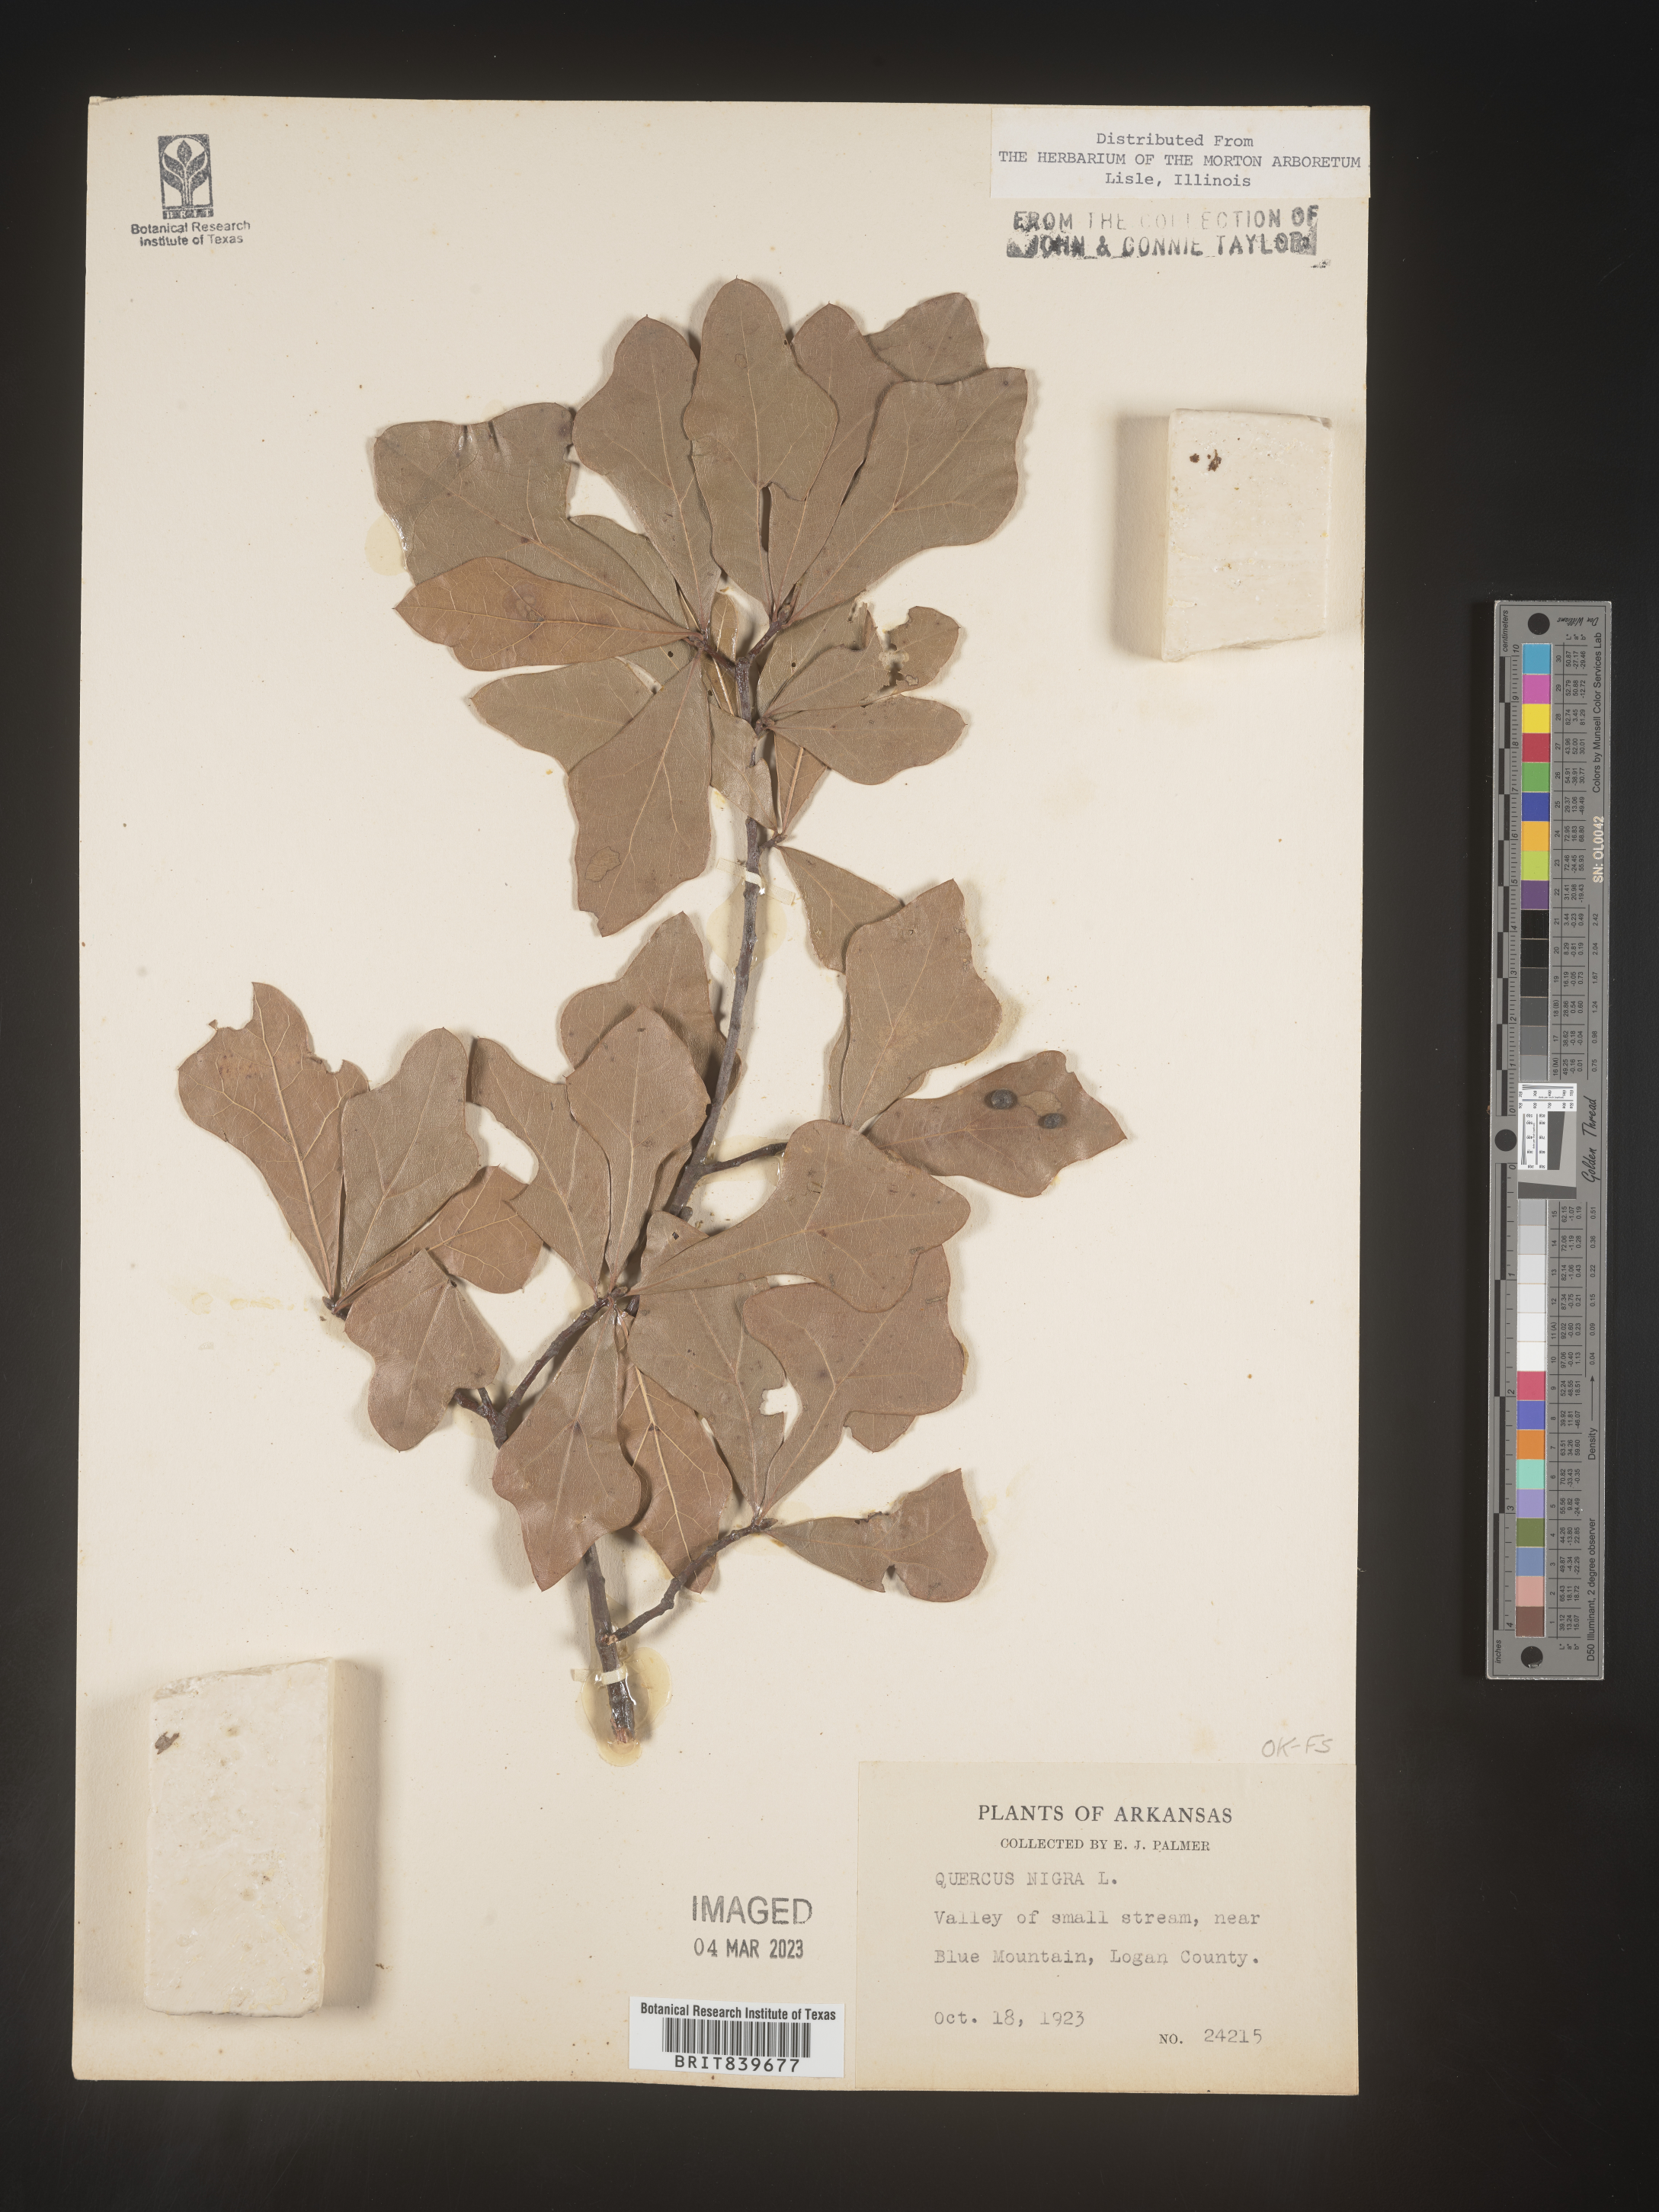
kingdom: Plantae
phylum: Tracheophyta
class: Magnoliopsida
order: Fagales
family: Fagaceae
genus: Quercus
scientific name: Quercus nigra
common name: Water oak
